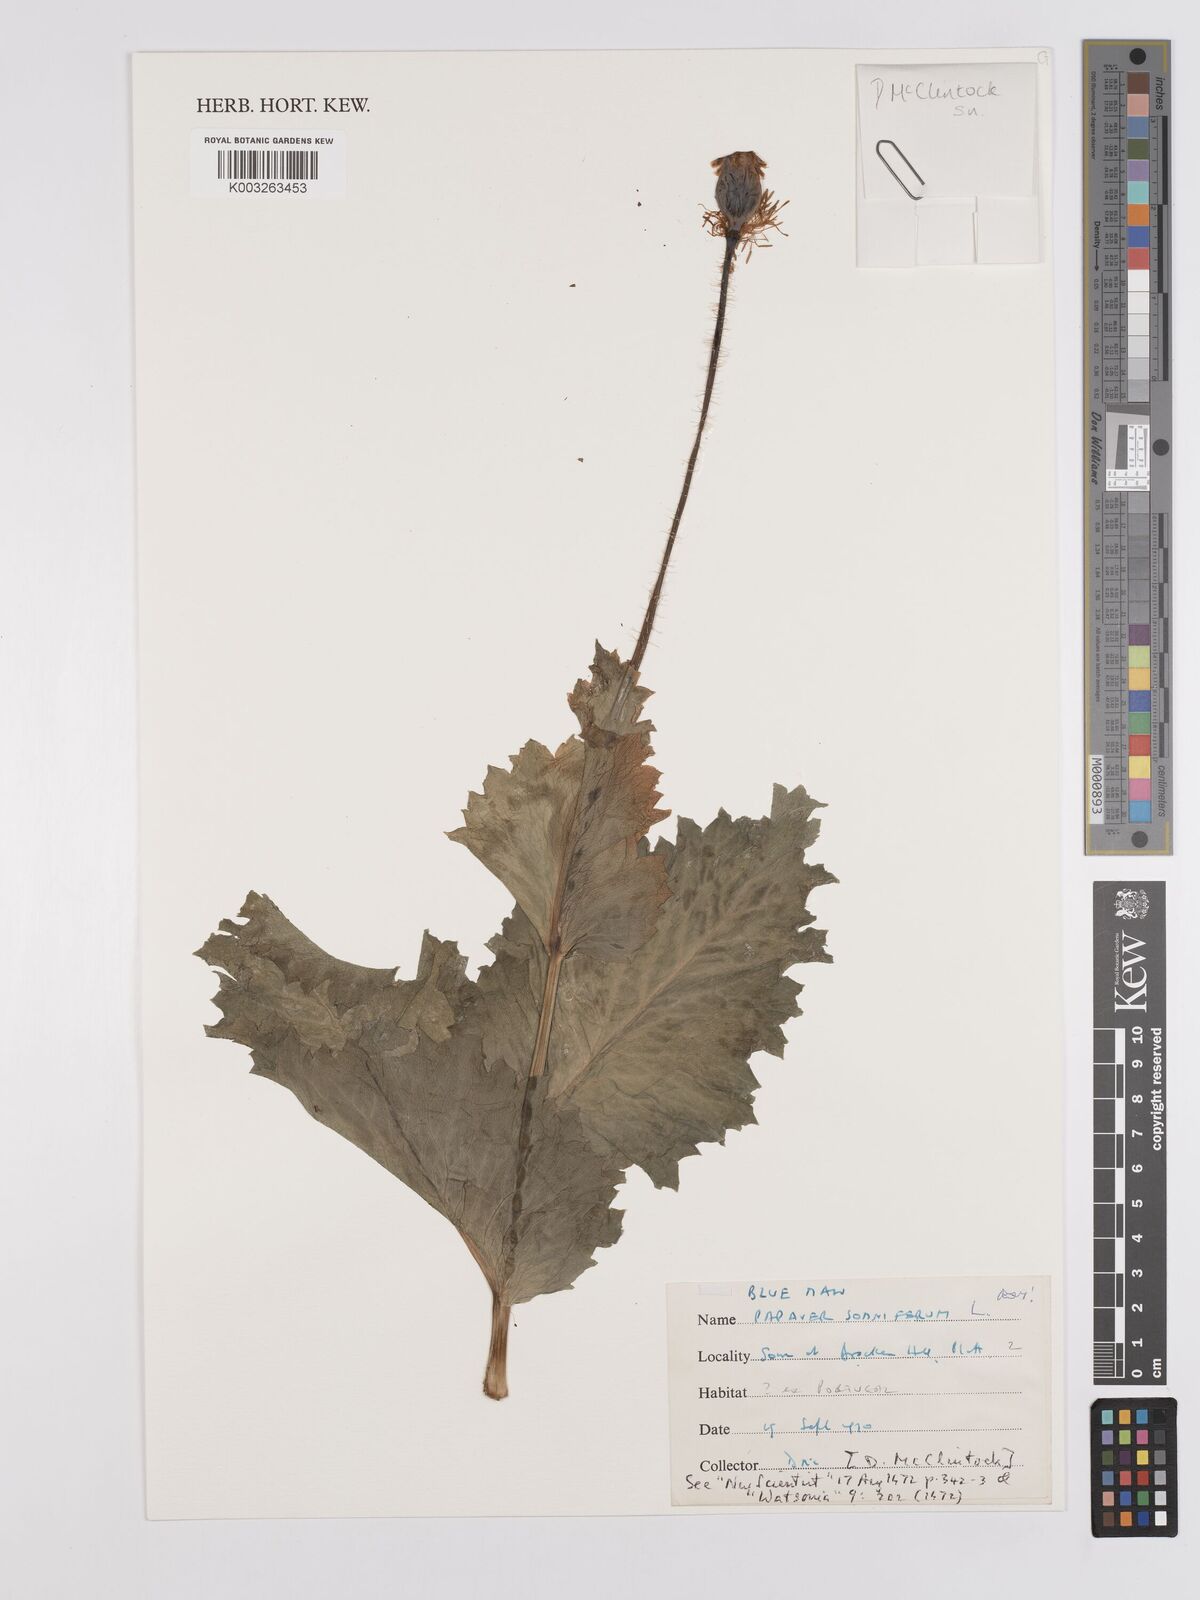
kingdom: Plantae
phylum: Tracheophyta
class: Magnoliopsida
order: Ranunculales
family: Papaveraceae
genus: Papaver
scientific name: Papaver somniferum
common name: Opium poppy
